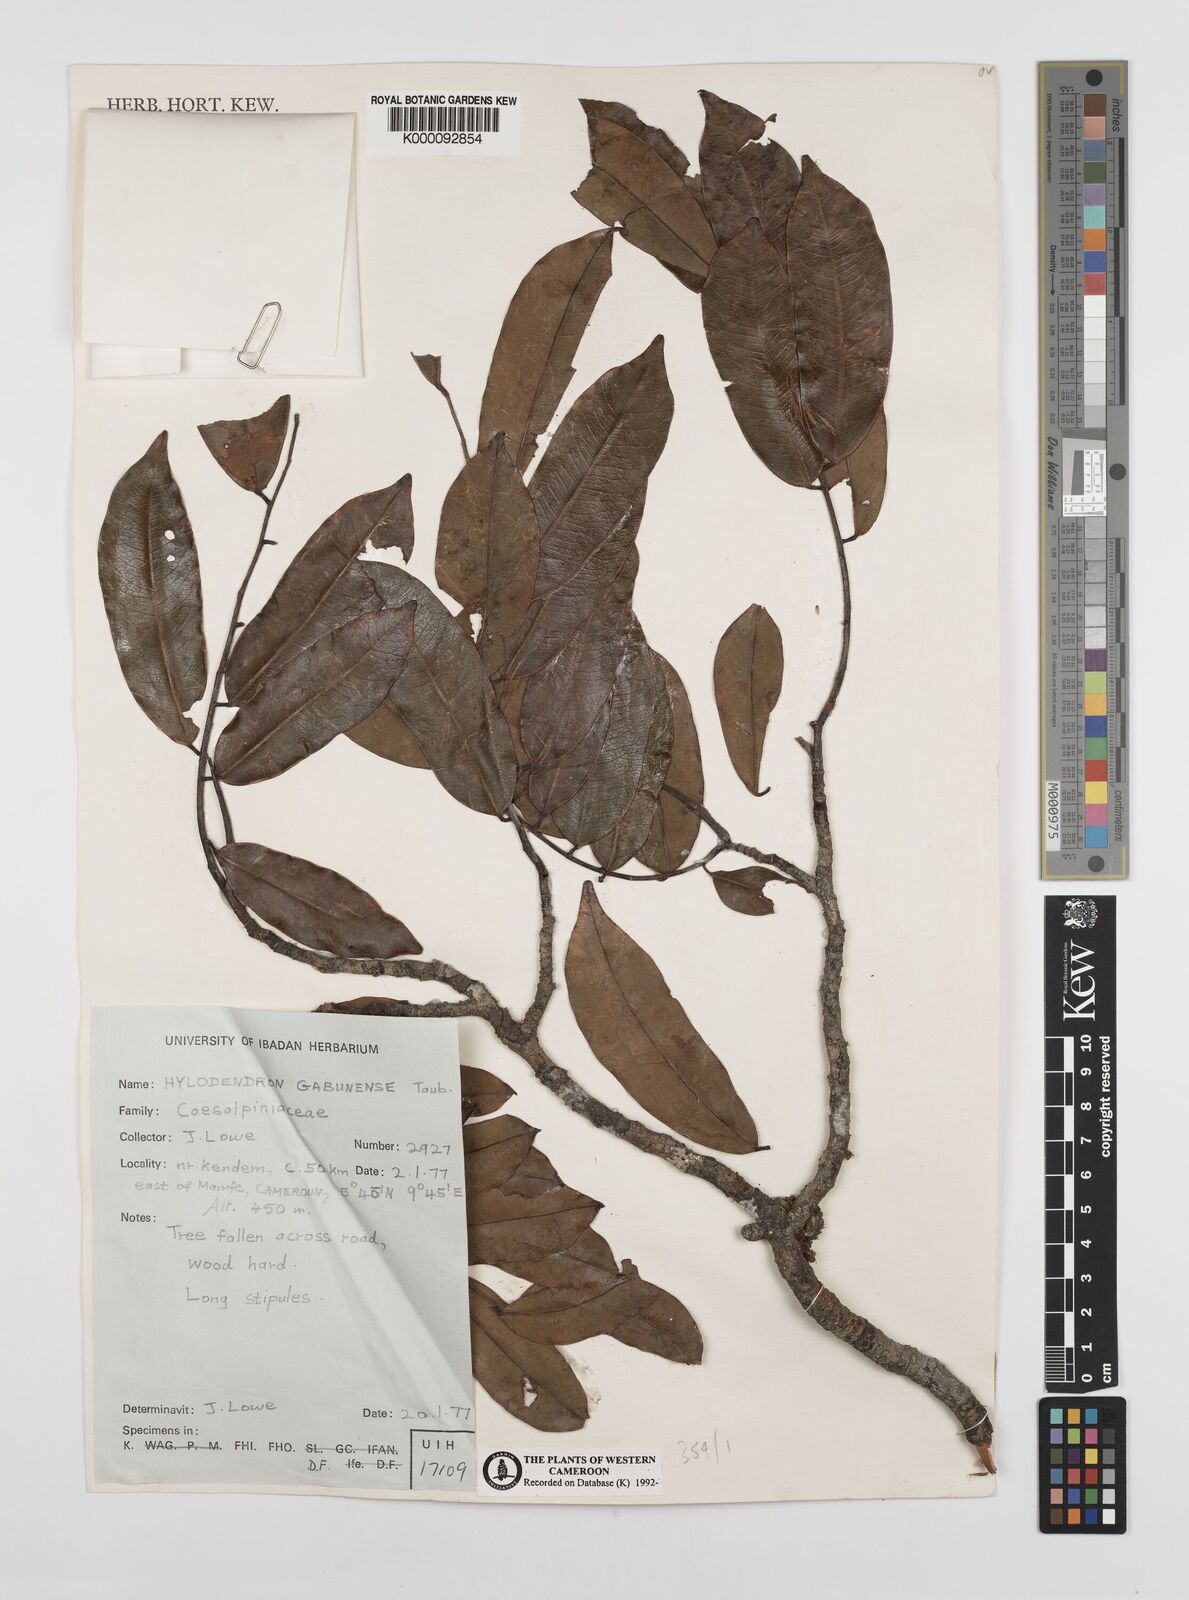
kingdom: Plantae
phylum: Tracheophyta
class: Magnoliopsida
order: Fabales
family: Fabaceae
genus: Hylodendron
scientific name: Hylodendron gabunense
